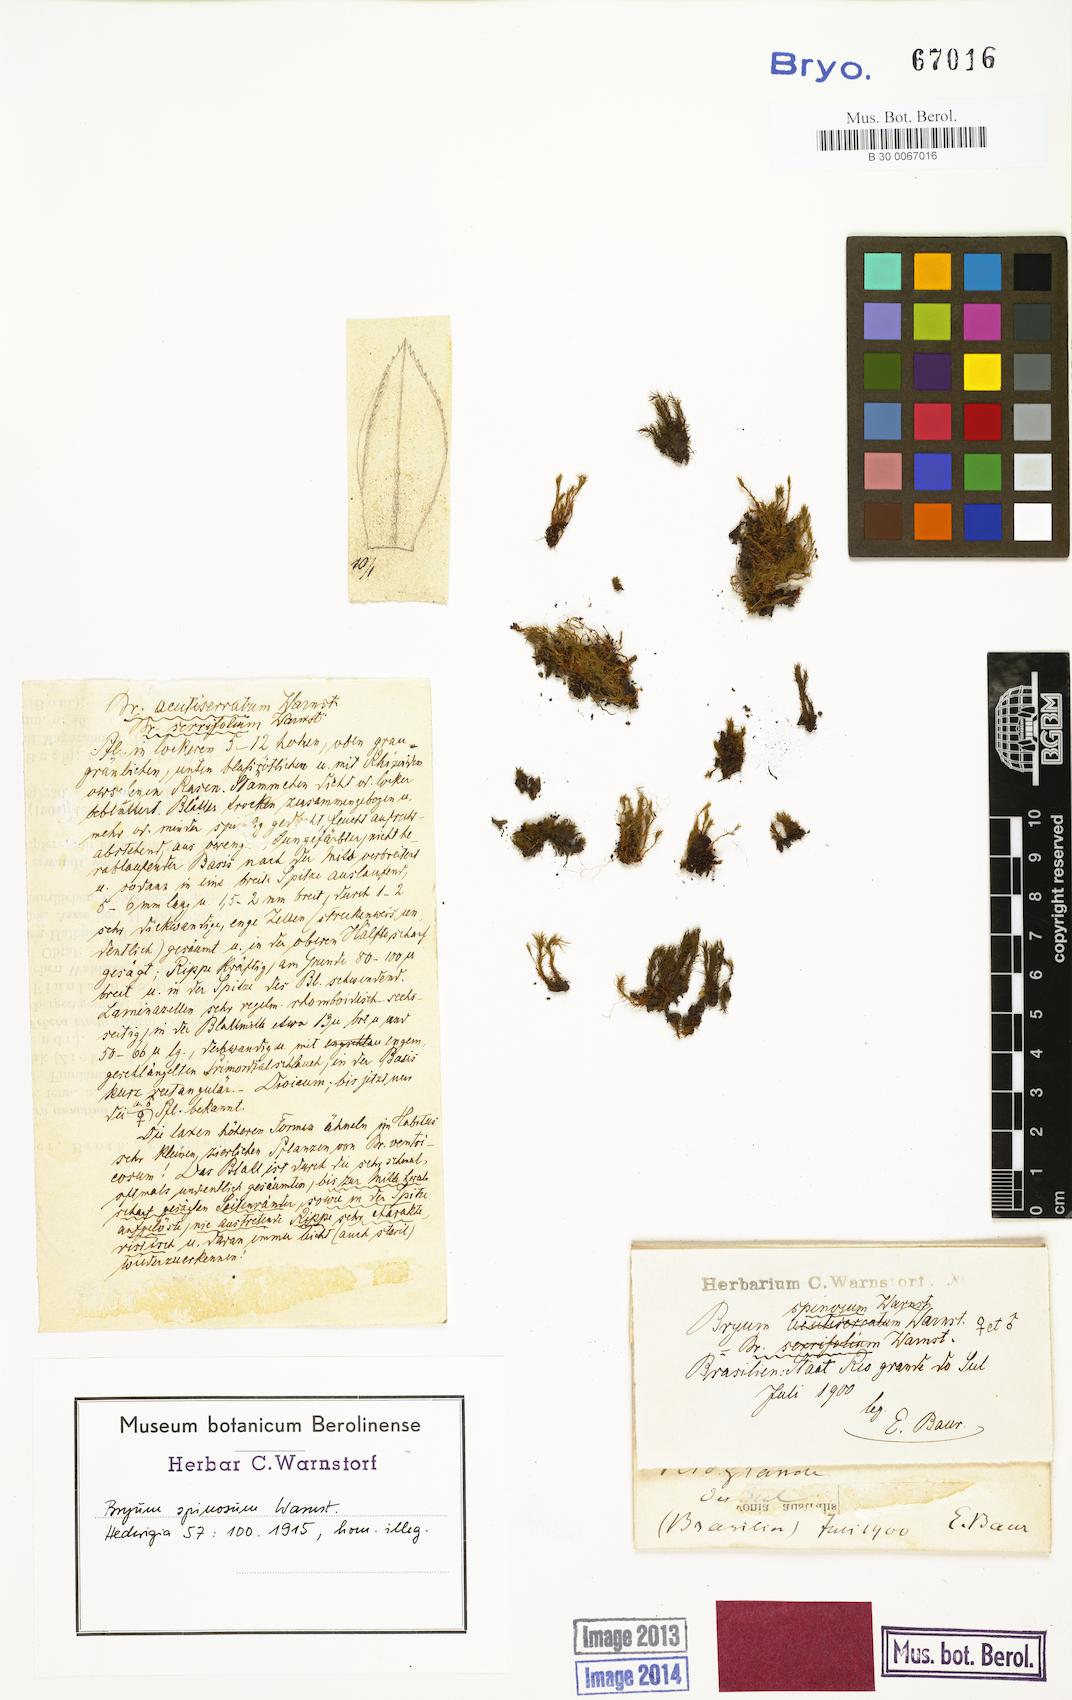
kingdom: Plantae
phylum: Bryophyta
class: Bryopsida
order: Bryales
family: Bryaceae
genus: Bryum
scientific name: Bryum spinosum
